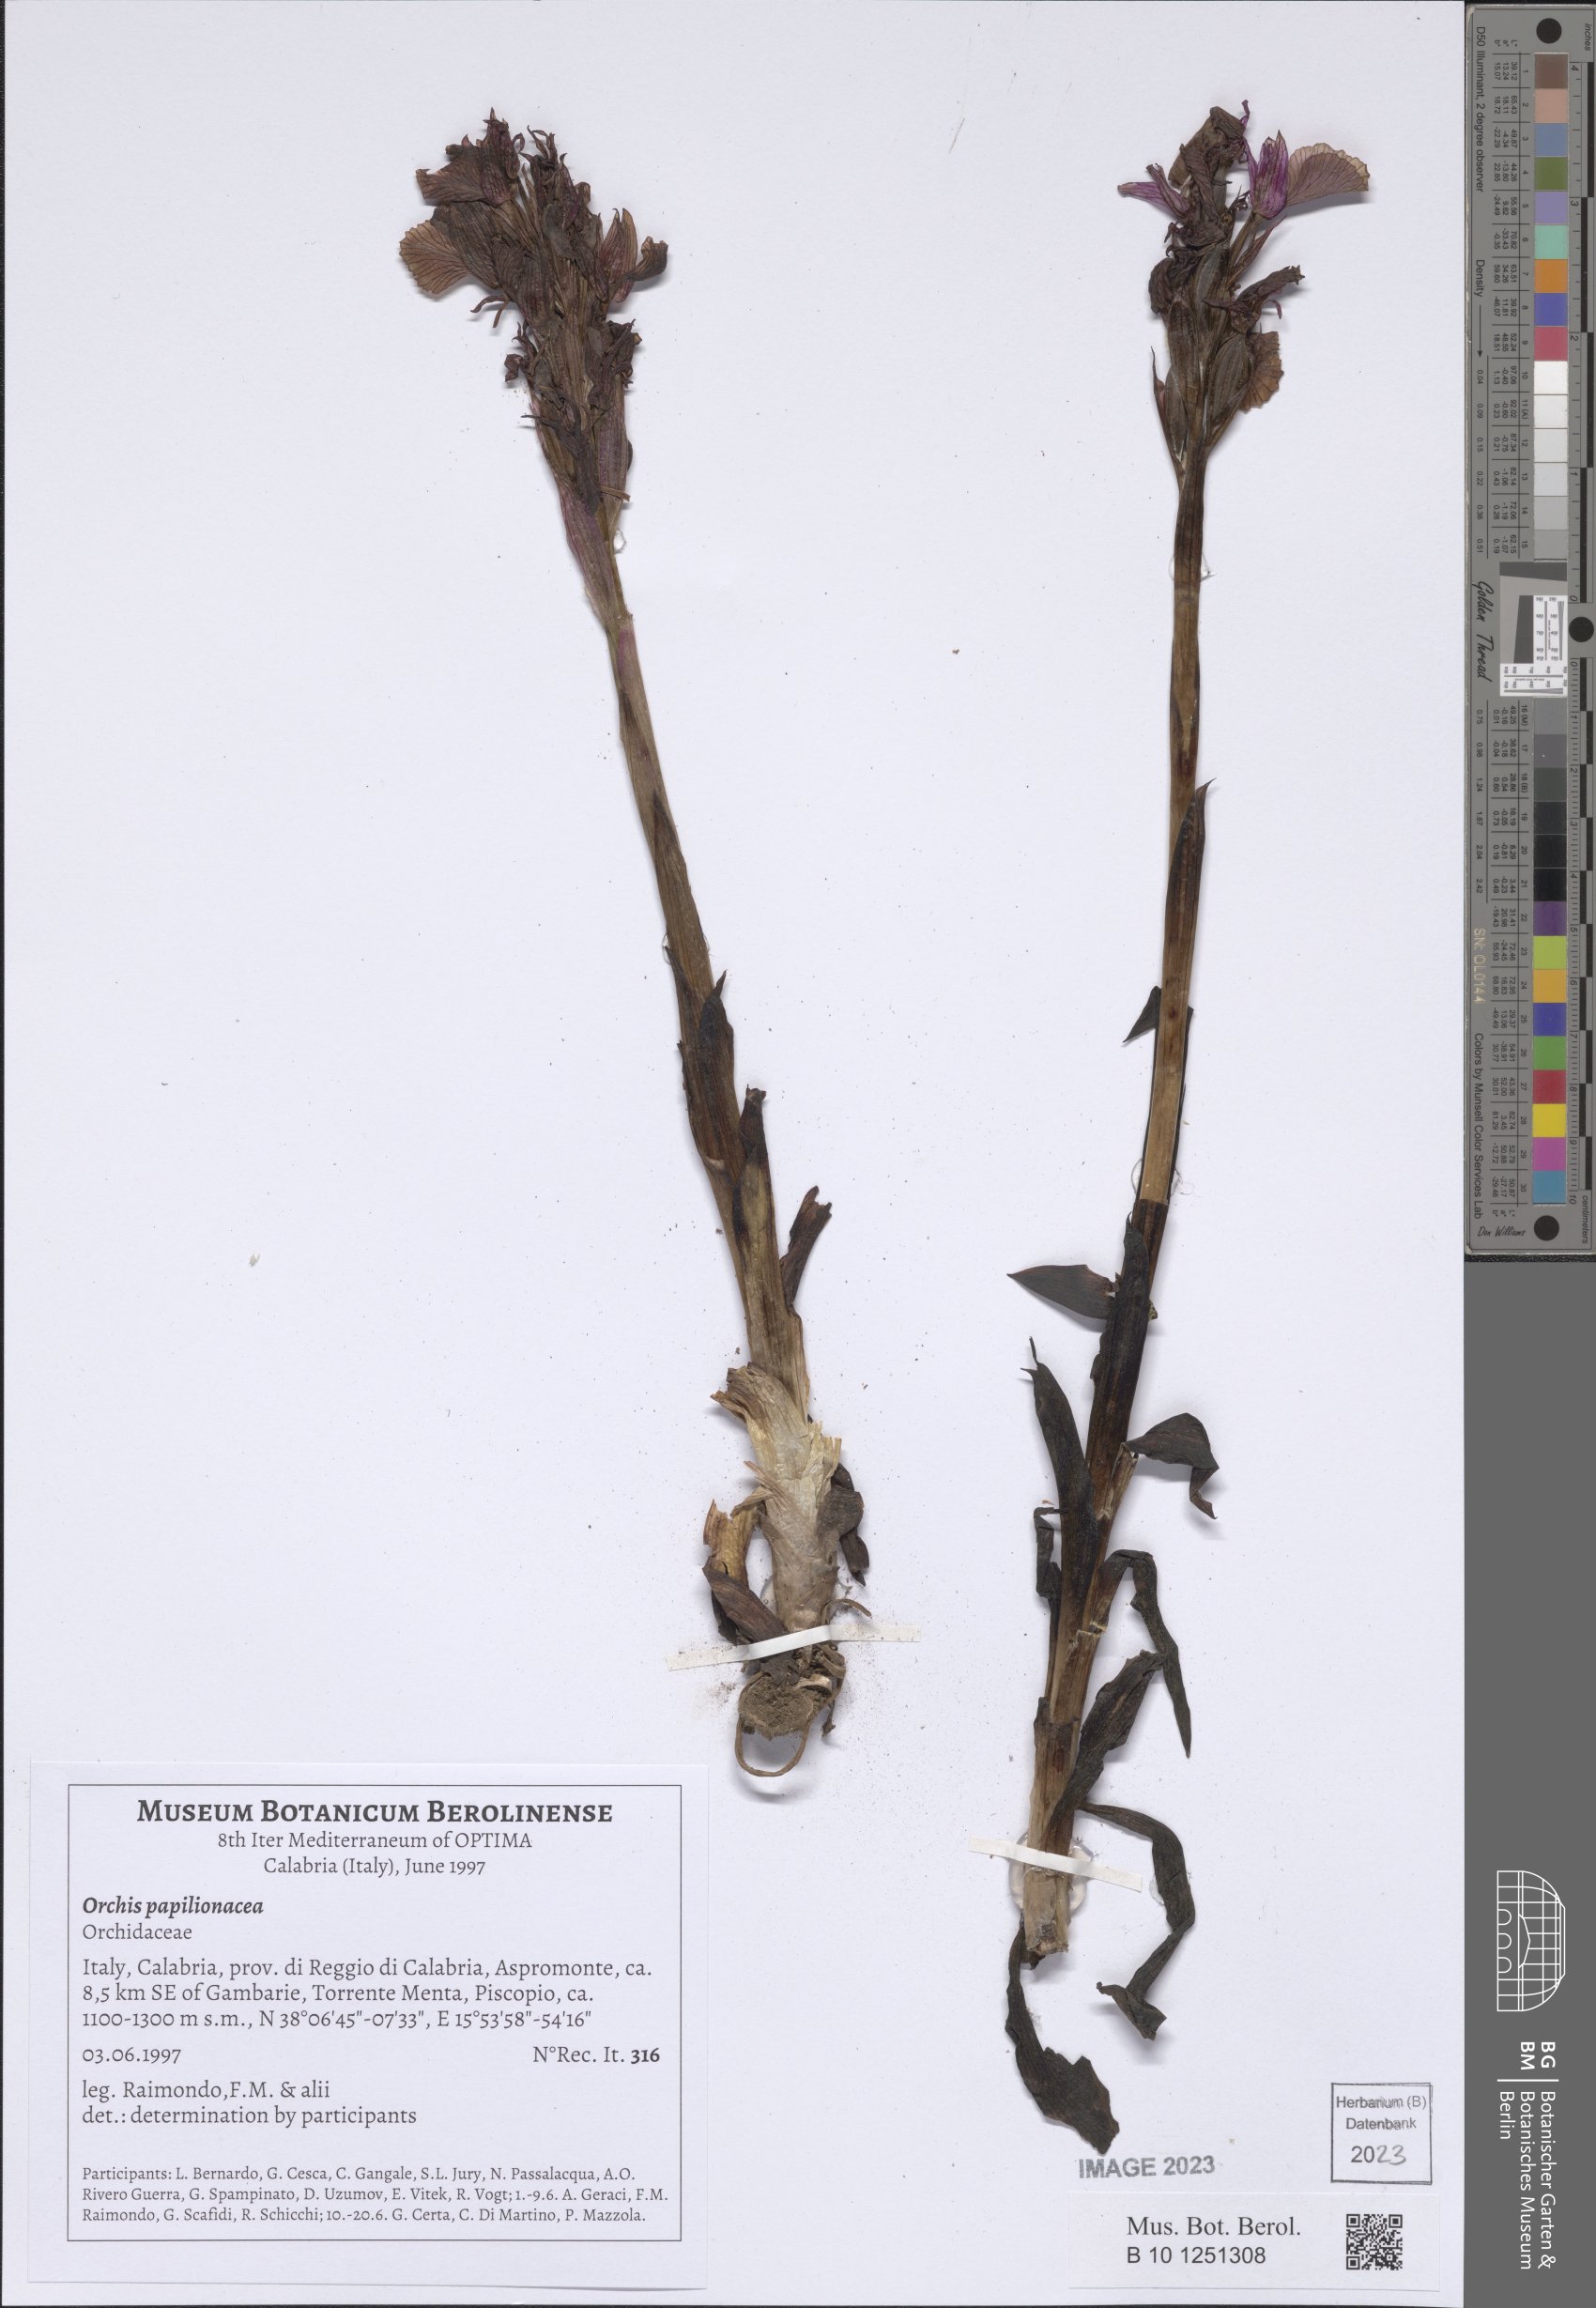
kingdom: Plantae
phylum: Tracheophyta
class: Liliopsida
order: Asparagales
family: Orchidaceae
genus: Anacamptis
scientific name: Anacamptis papilionacea
